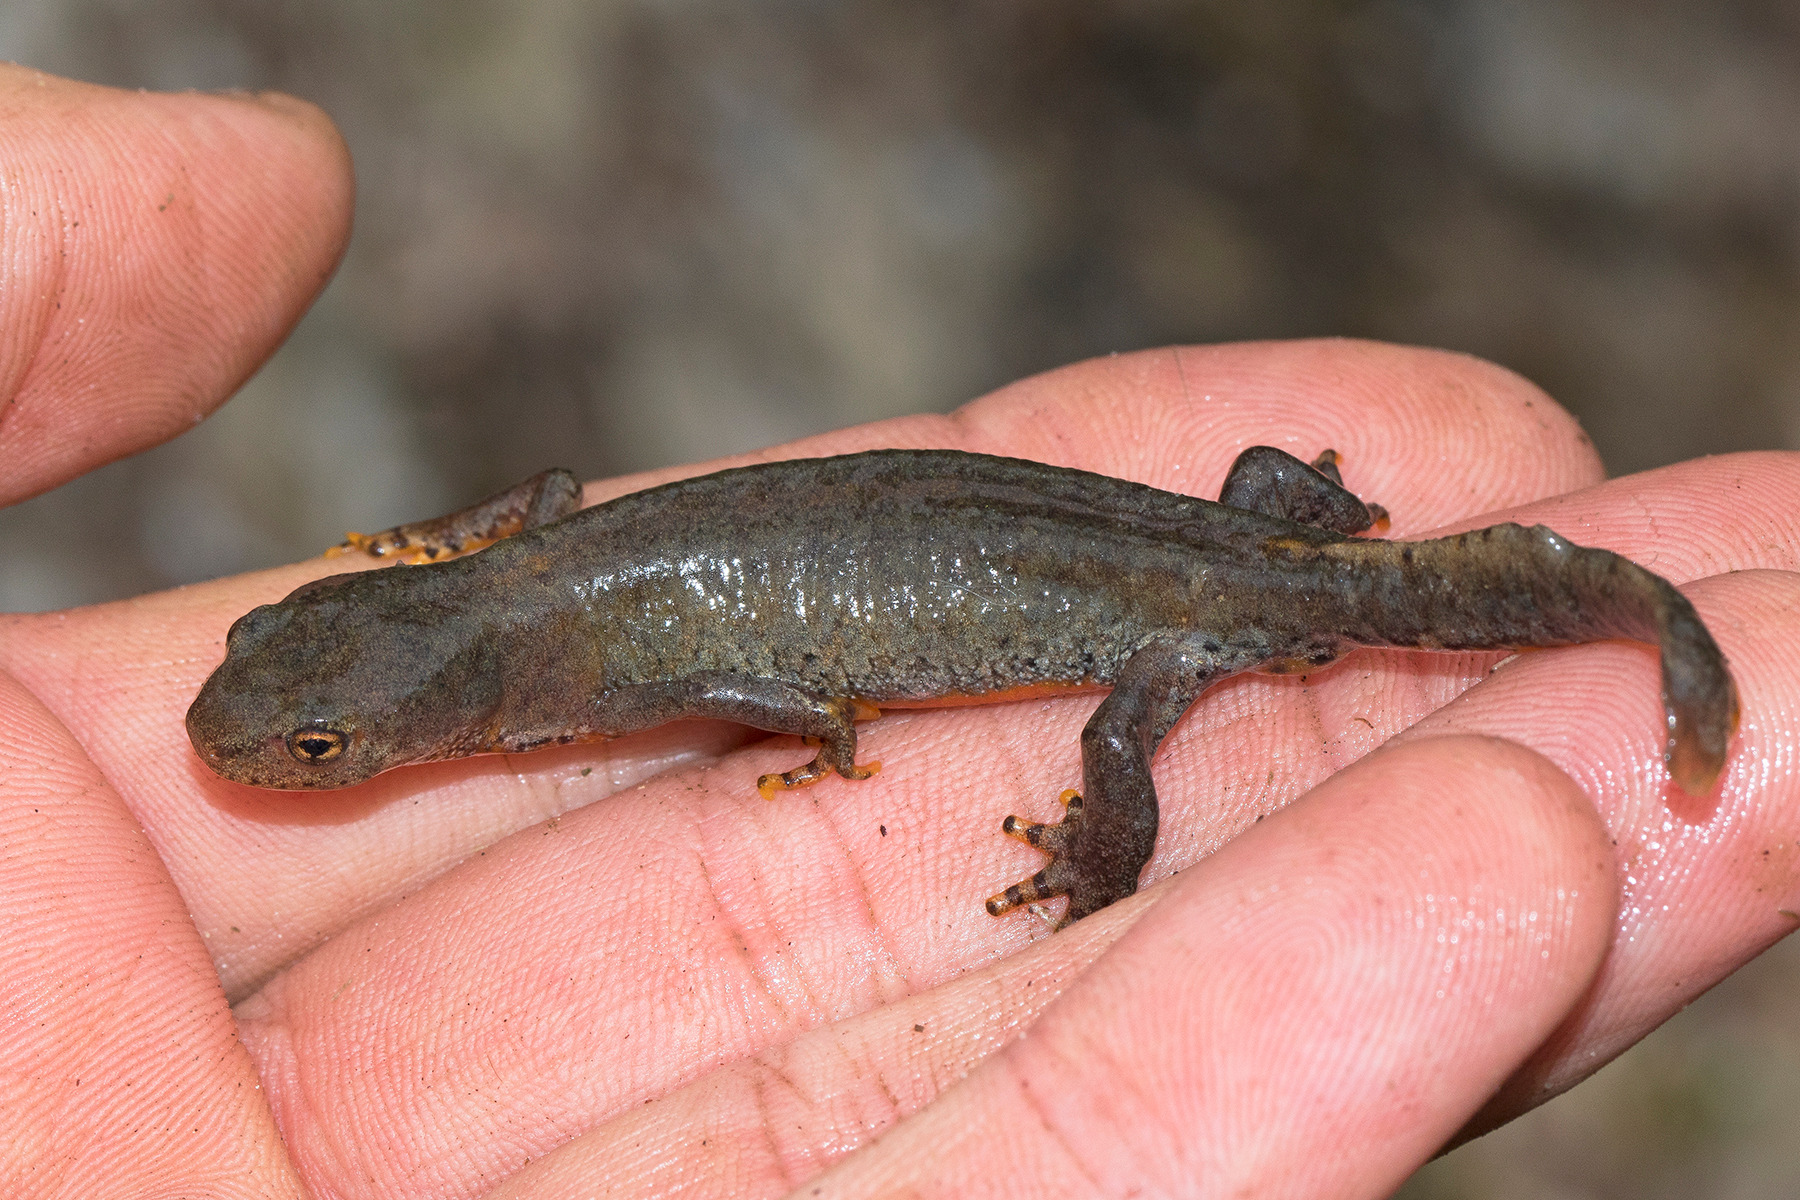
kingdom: Animalia
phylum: Chordata
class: Amphibia
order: Caudata
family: Salamandridae
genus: Ichthyosaura
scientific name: Ichthyosaura alpestris
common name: Bjergsalamander
